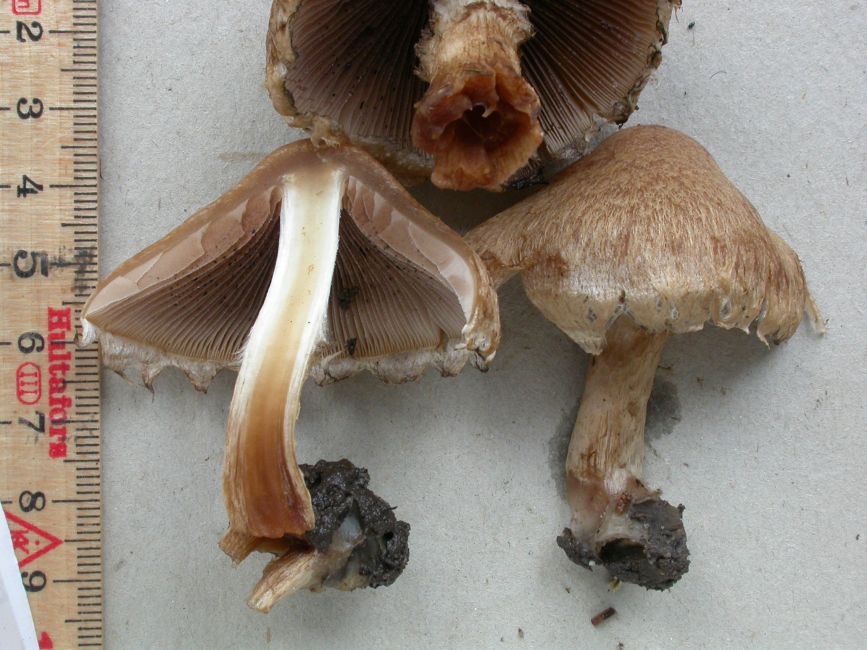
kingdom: Fungi
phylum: Basidiomycota
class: Agaricomycetes
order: Agaricales
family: Psathyrellaceae
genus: Lacrymaria
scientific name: Lacrymaria lacrymabunda
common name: grædende mørkhat
